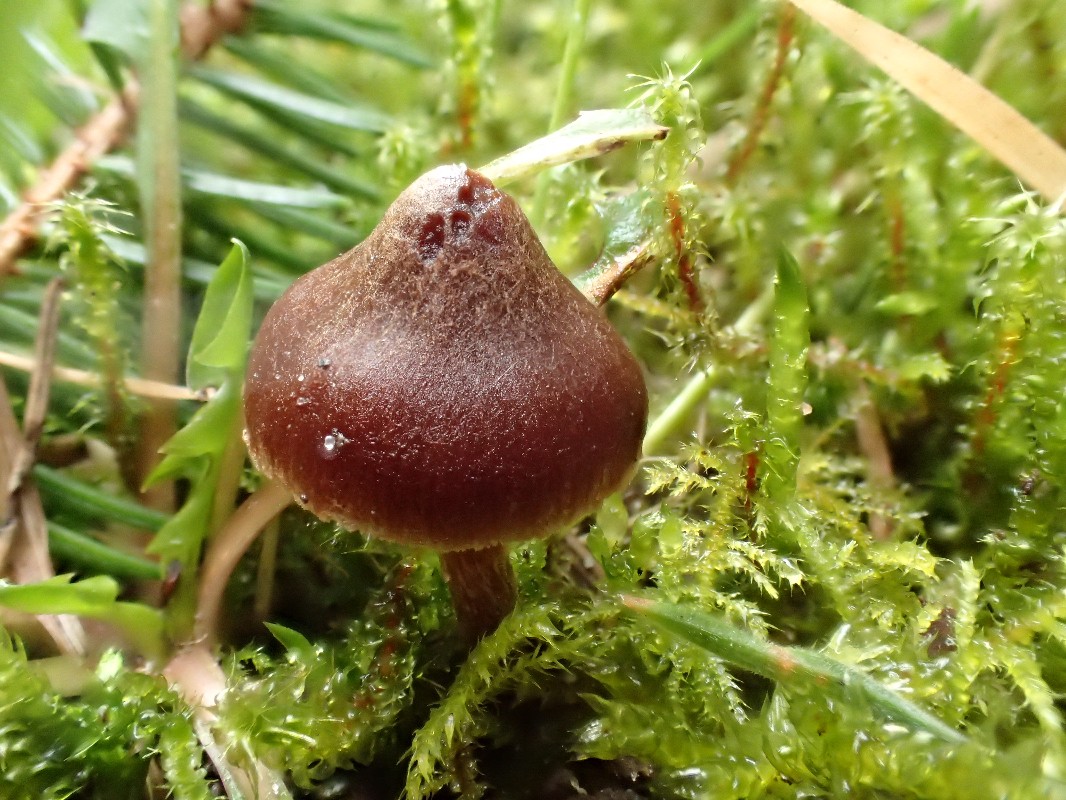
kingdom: Fungi
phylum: Basidiomycota
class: Agaricomycetes
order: Agaricales
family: Cortinariaceae
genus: Cortinarius
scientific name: Cortinarius
